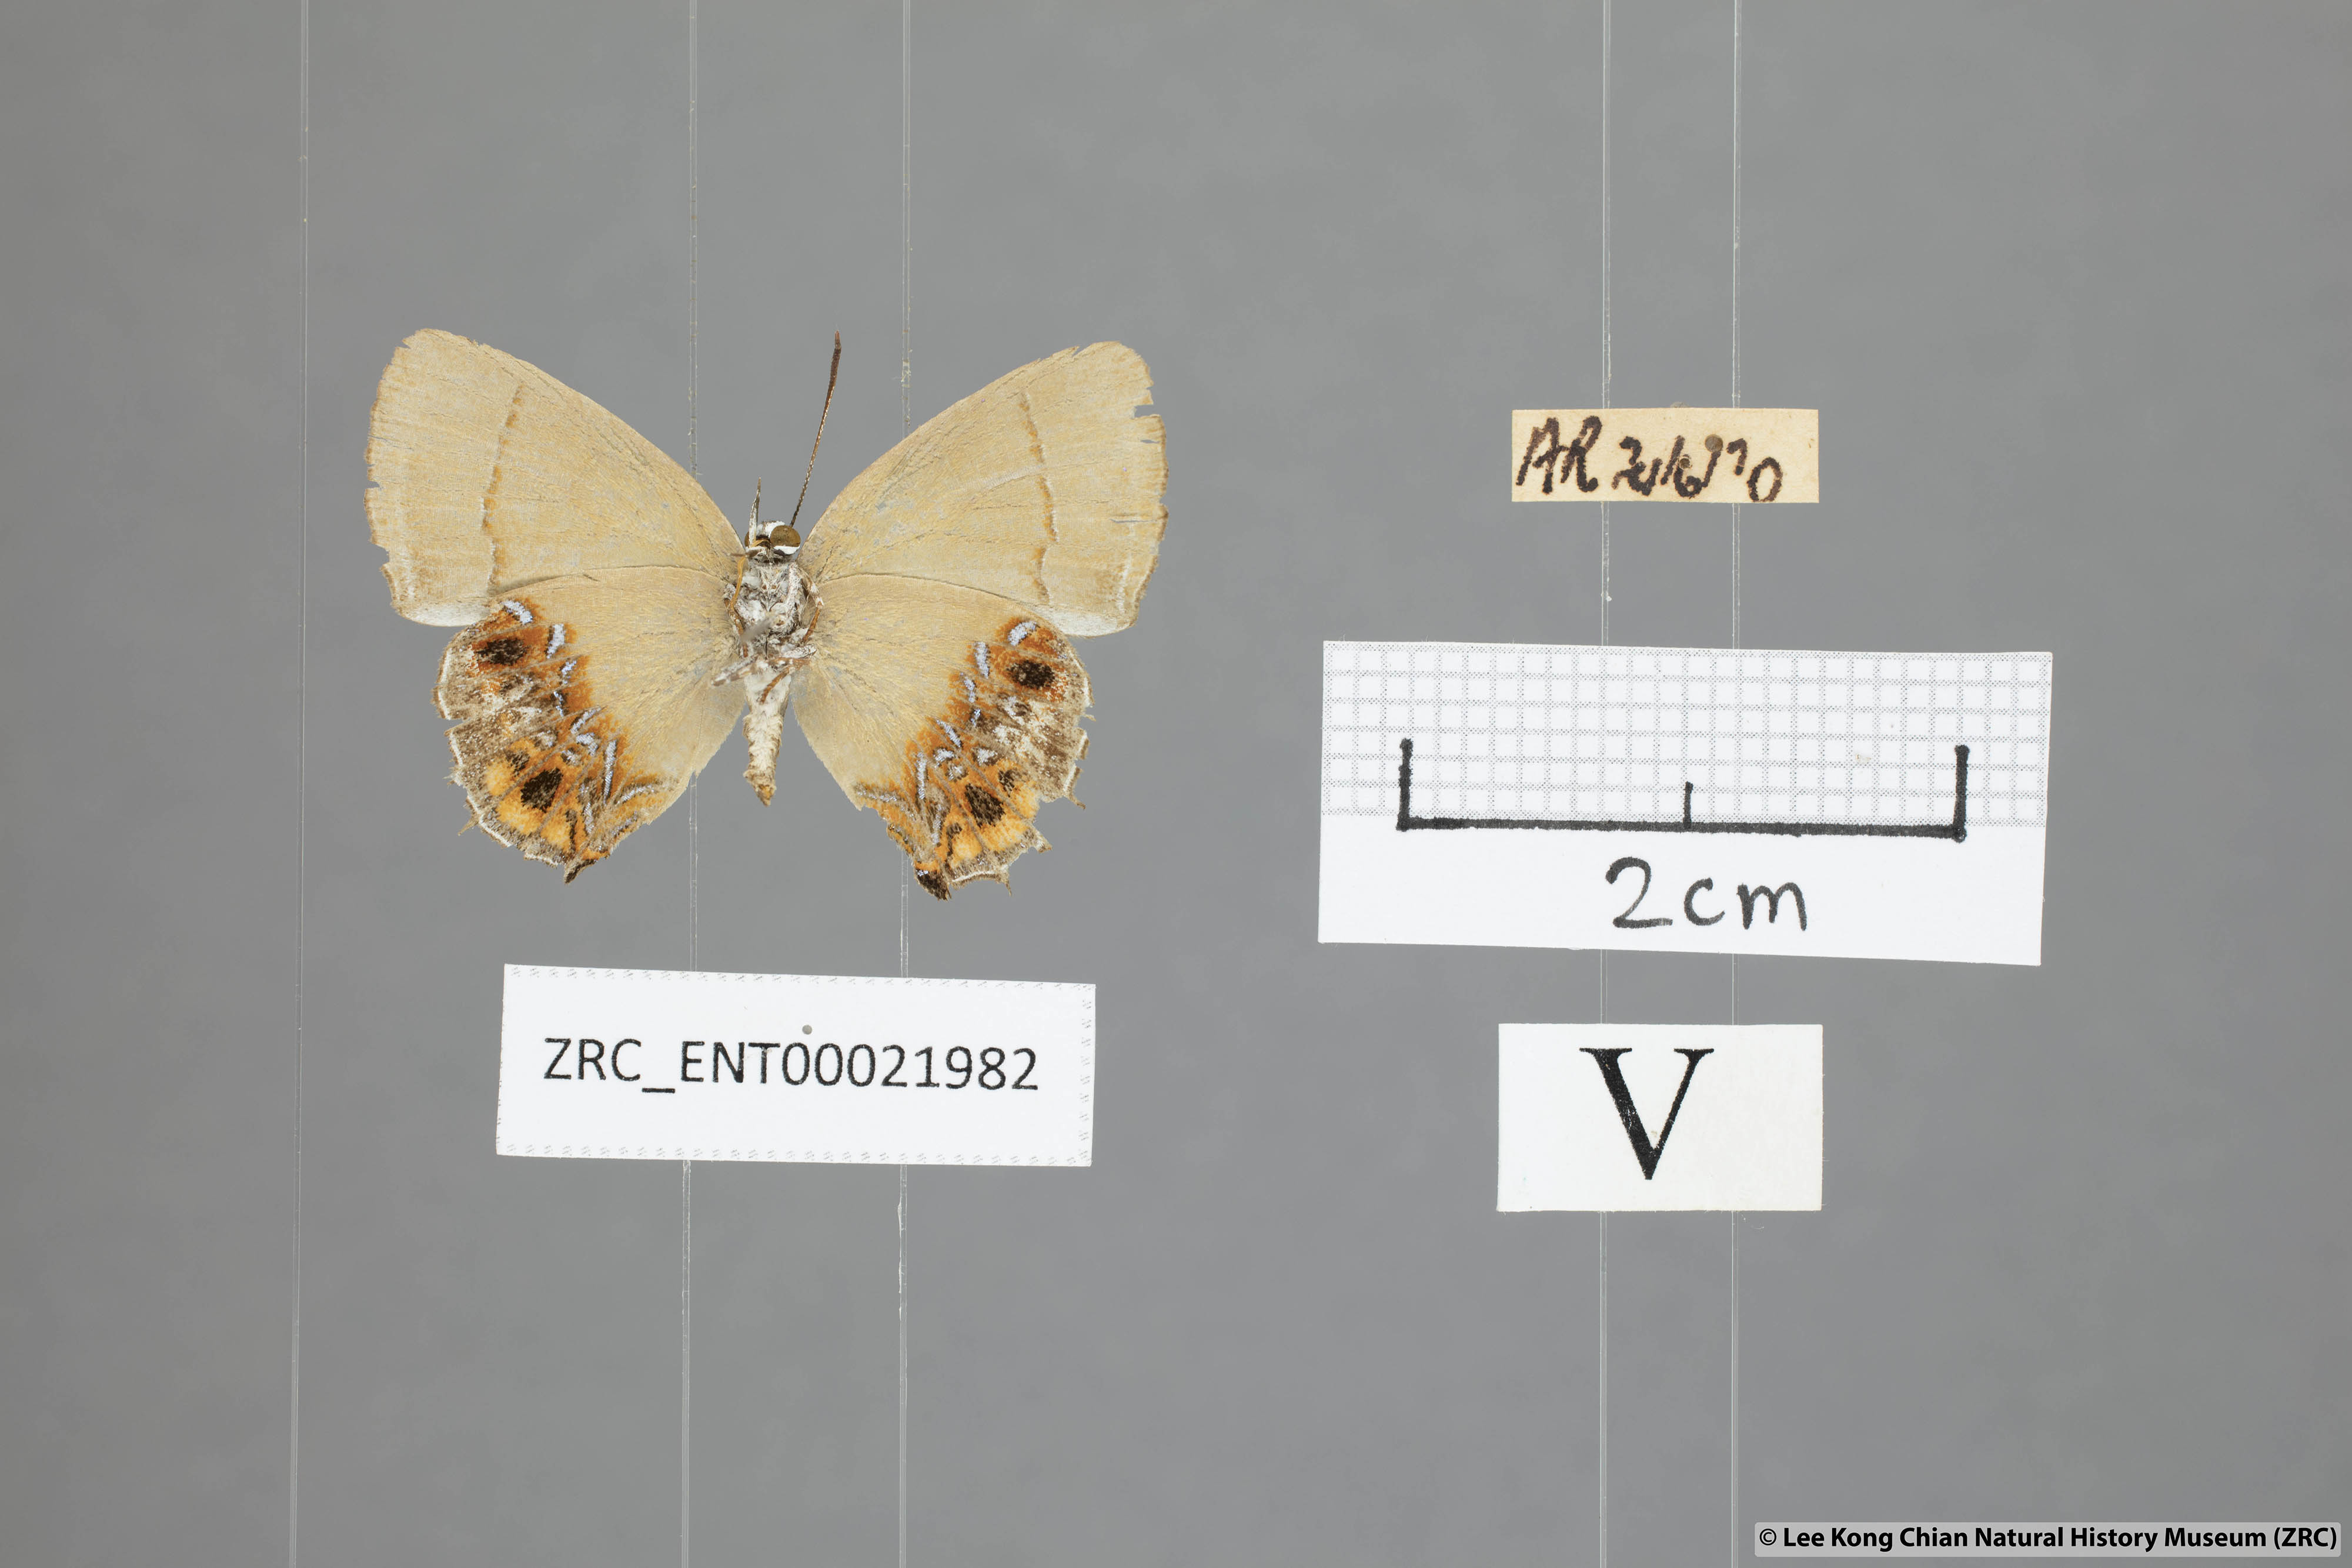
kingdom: Animalia
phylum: Arthropoda
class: Insecta
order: Lepidoptera
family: Lycaenidae
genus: Semanga
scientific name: Semanga superba
